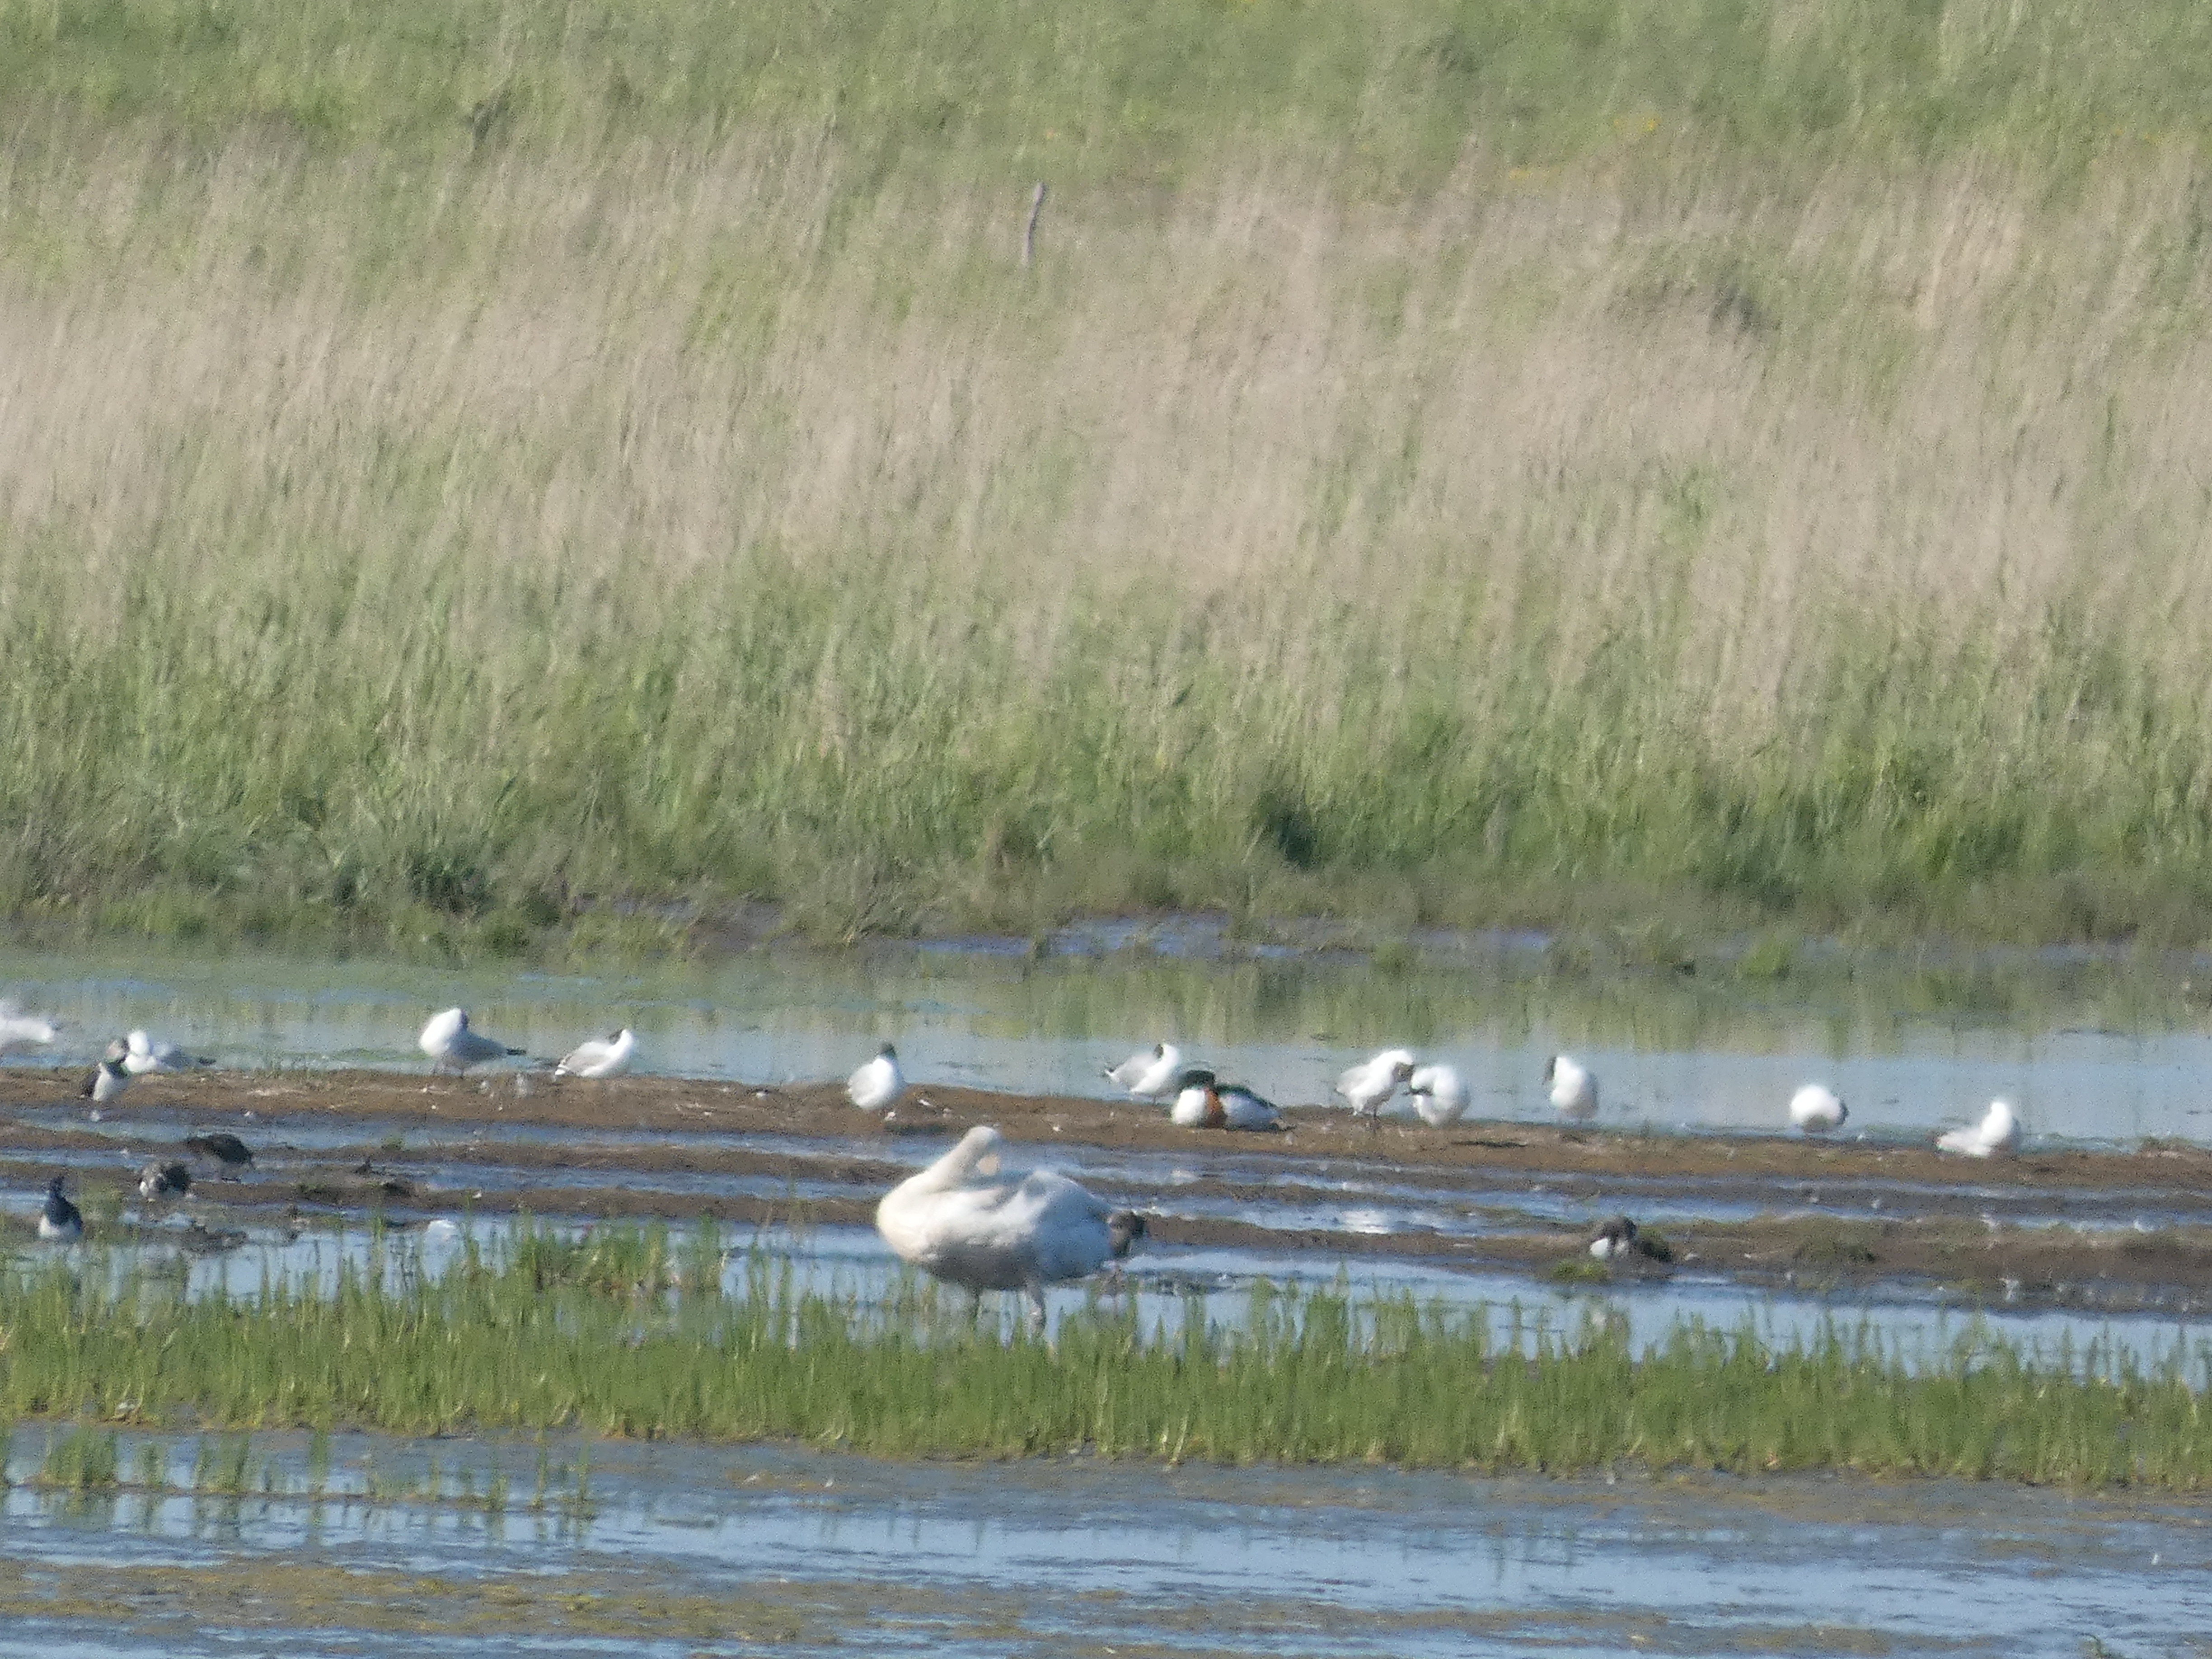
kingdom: Animalia
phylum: Chordata
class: Aves
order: Anseriformes
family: Anatidae
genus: Tadorna
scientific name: Tadorna tadorna
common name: Gravand
